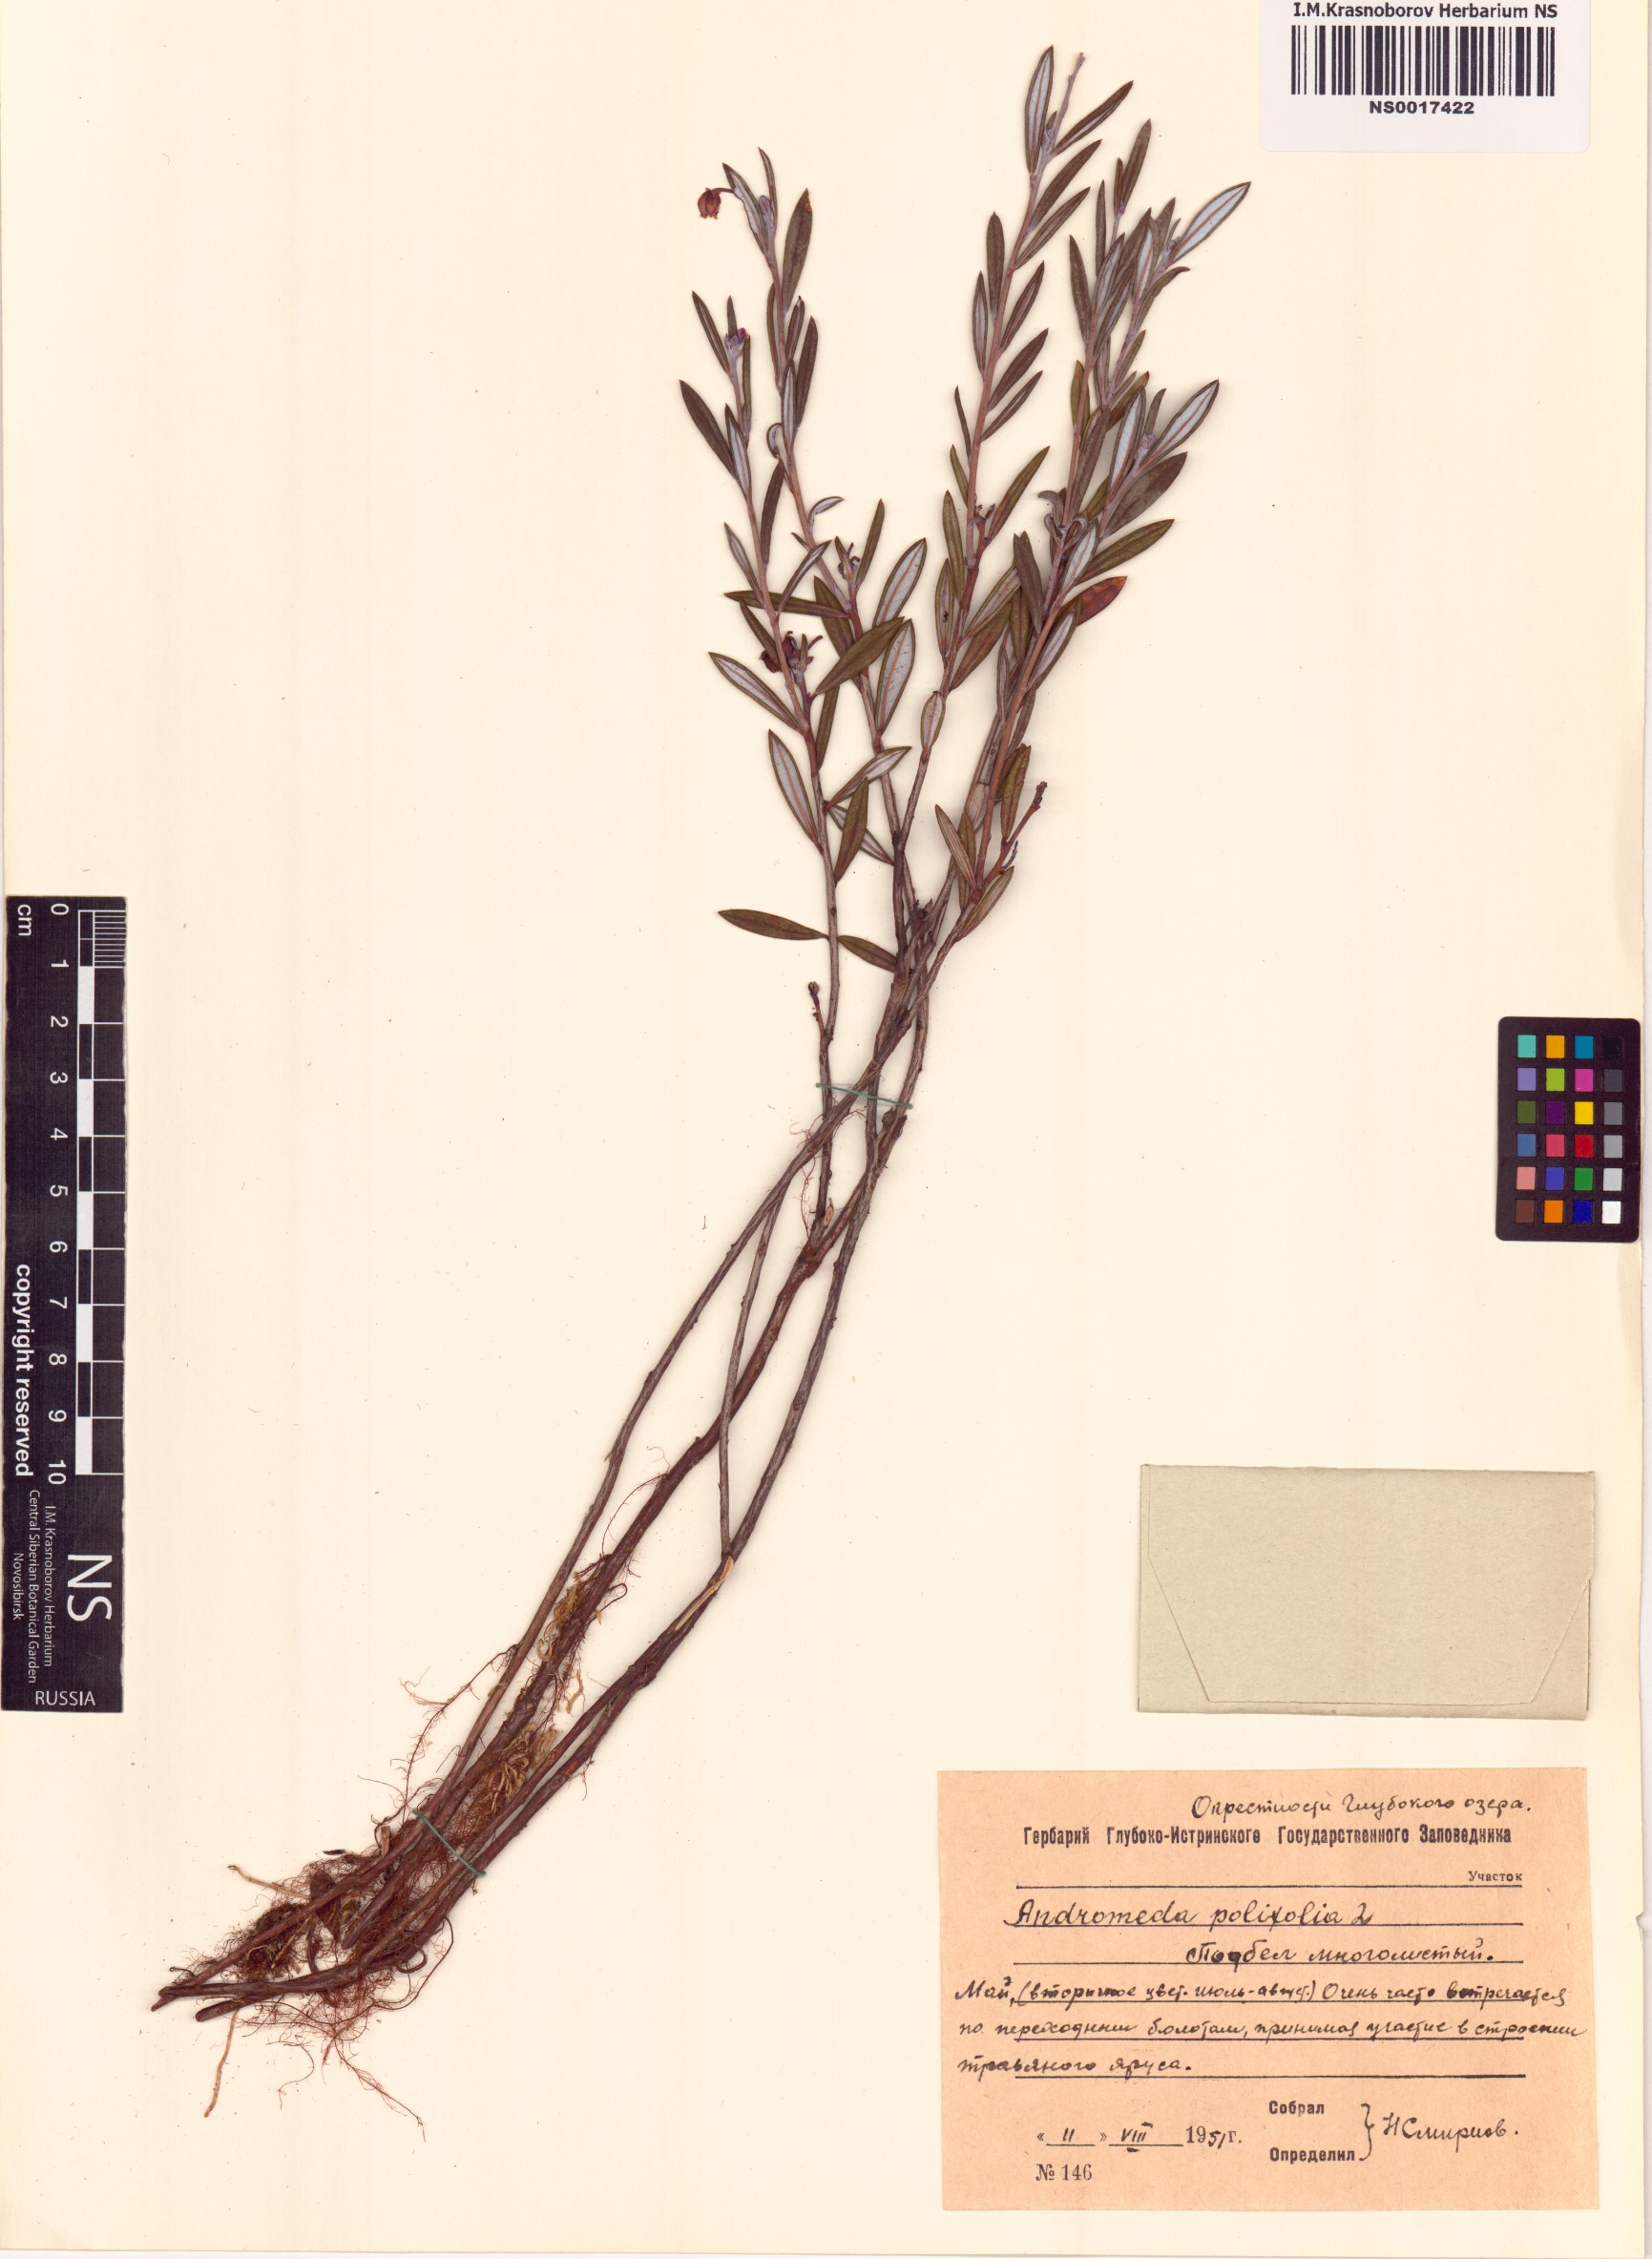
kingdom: Plantae
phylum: Tracheophyta
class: Magnoliopsida
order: Ericales
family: Ericaceae
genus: Andromeda
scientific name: Andromeda polifolia
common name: Bog-rosemary
